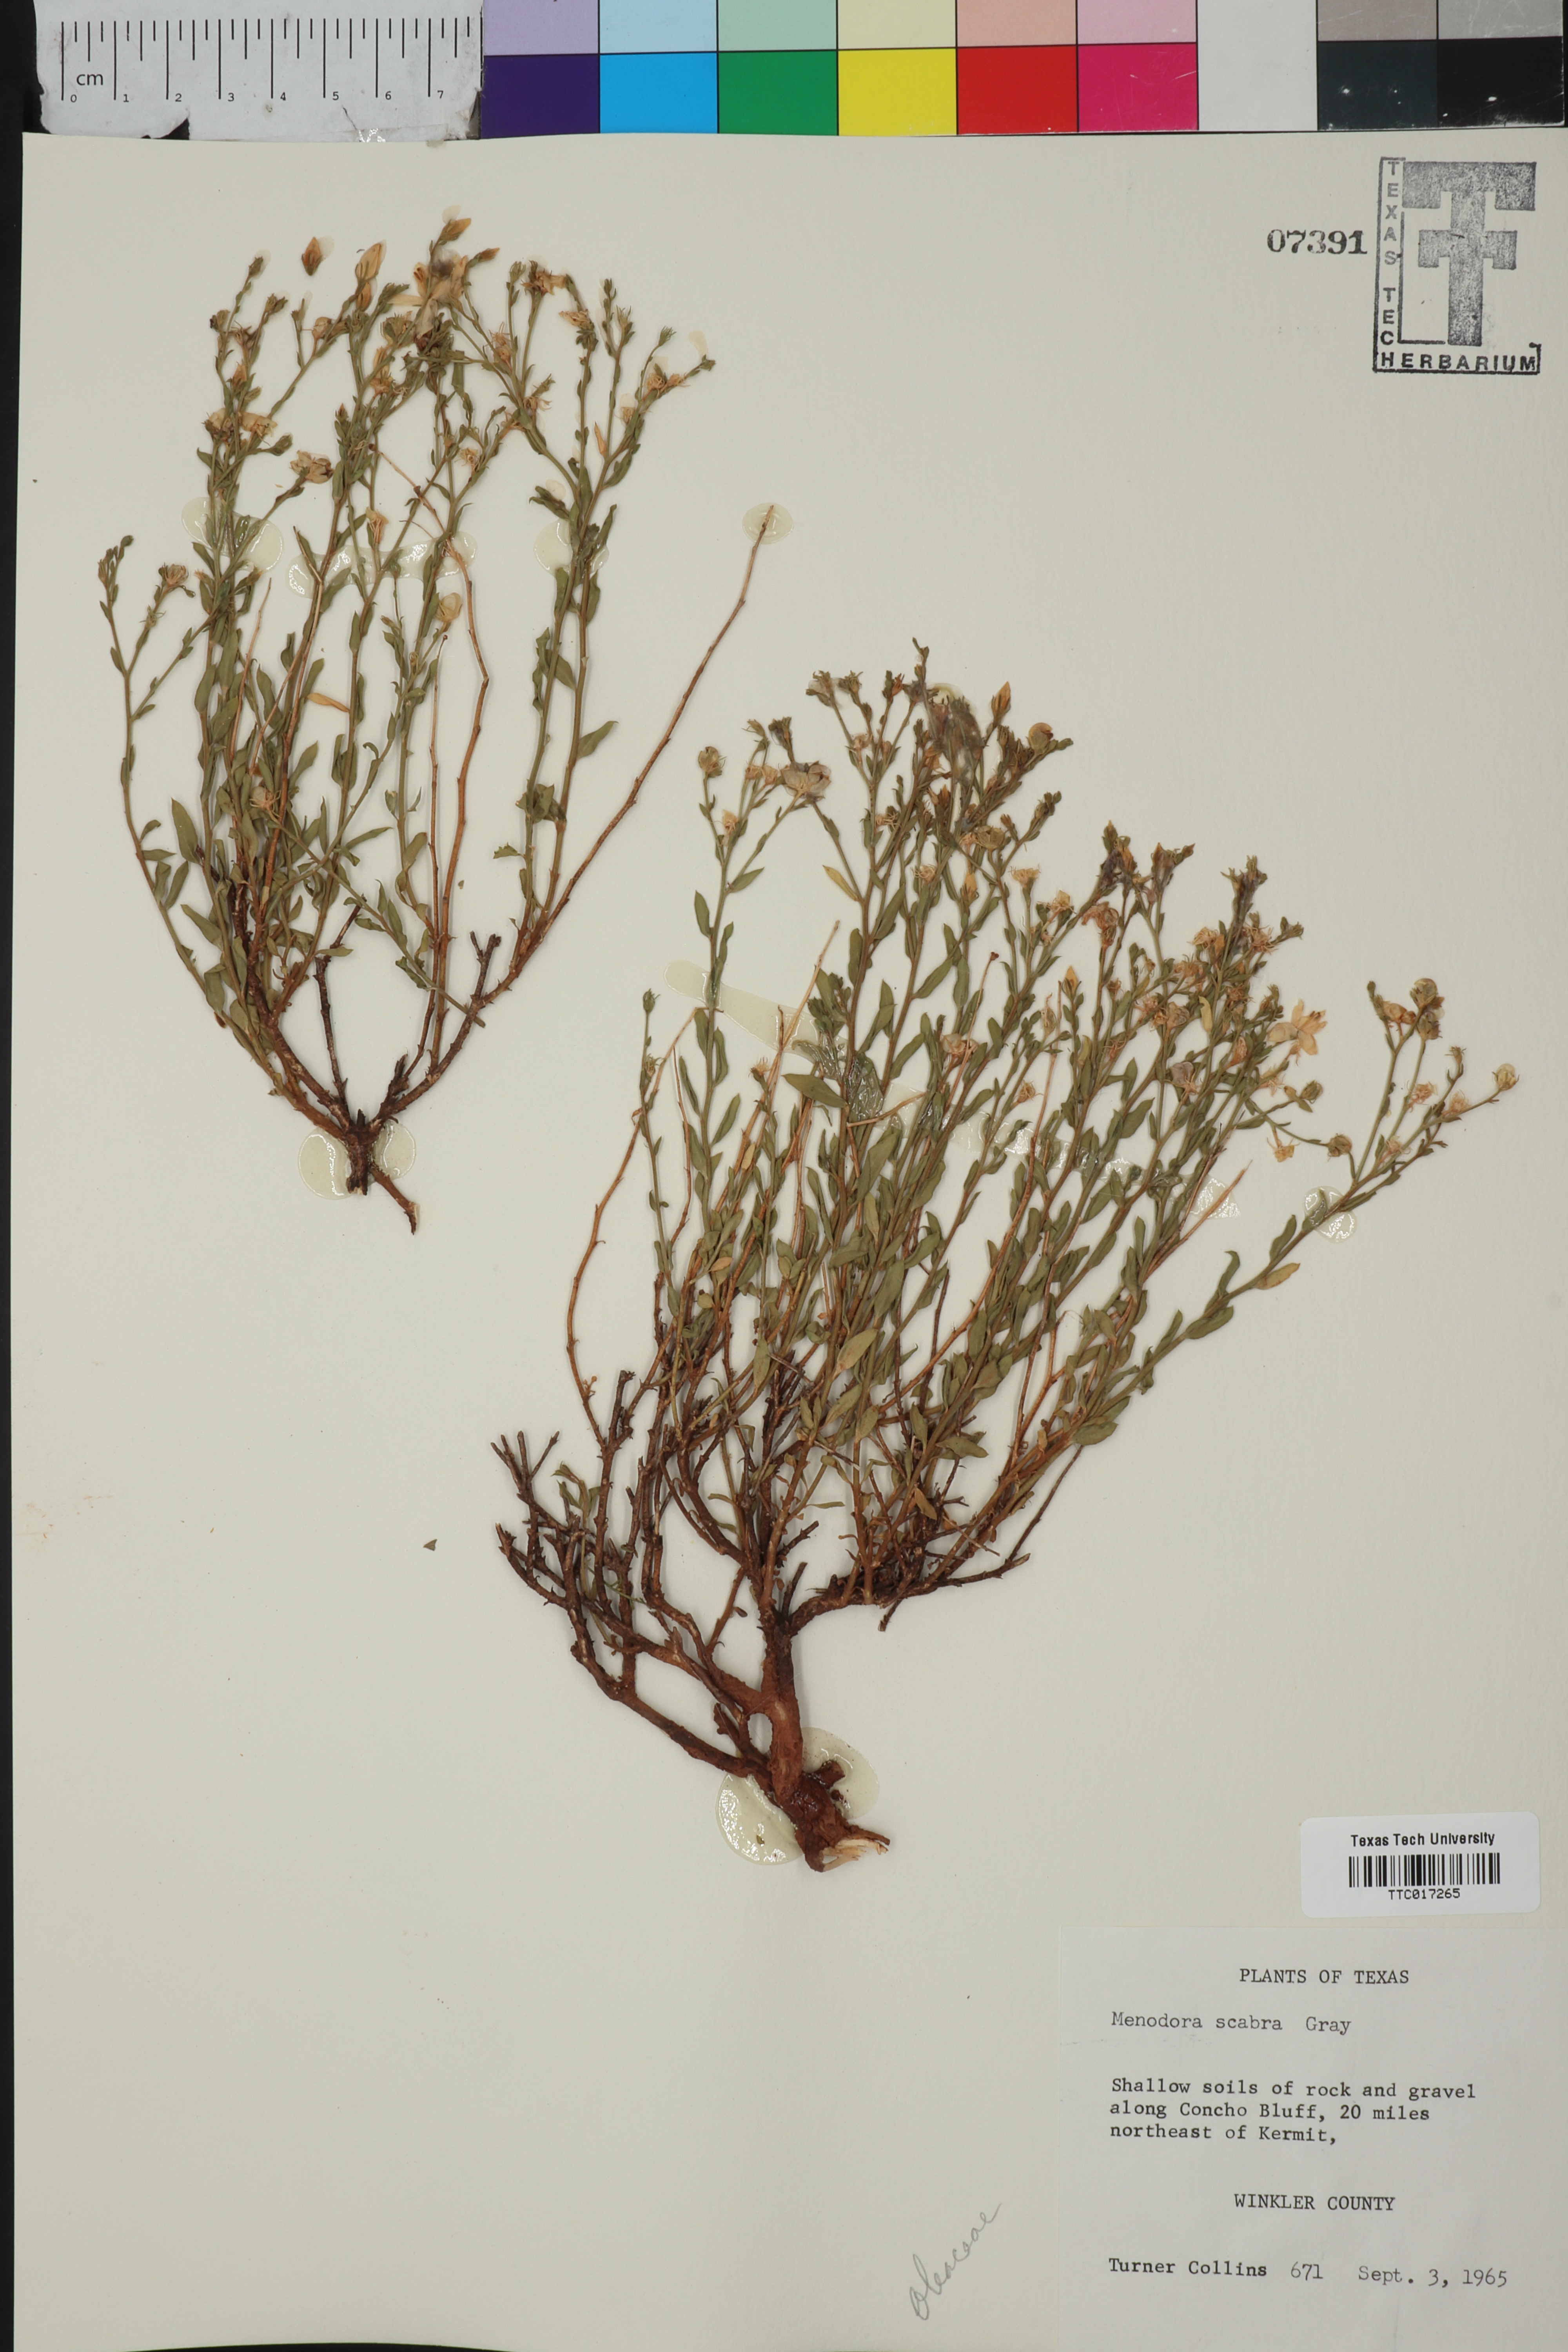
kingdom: Plantae
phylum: Tracheophyta
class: Magnoliopsida
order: Lamiales
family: Oleaceae
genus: Menodora
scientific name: Menodora scabra
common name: Rough menodora
